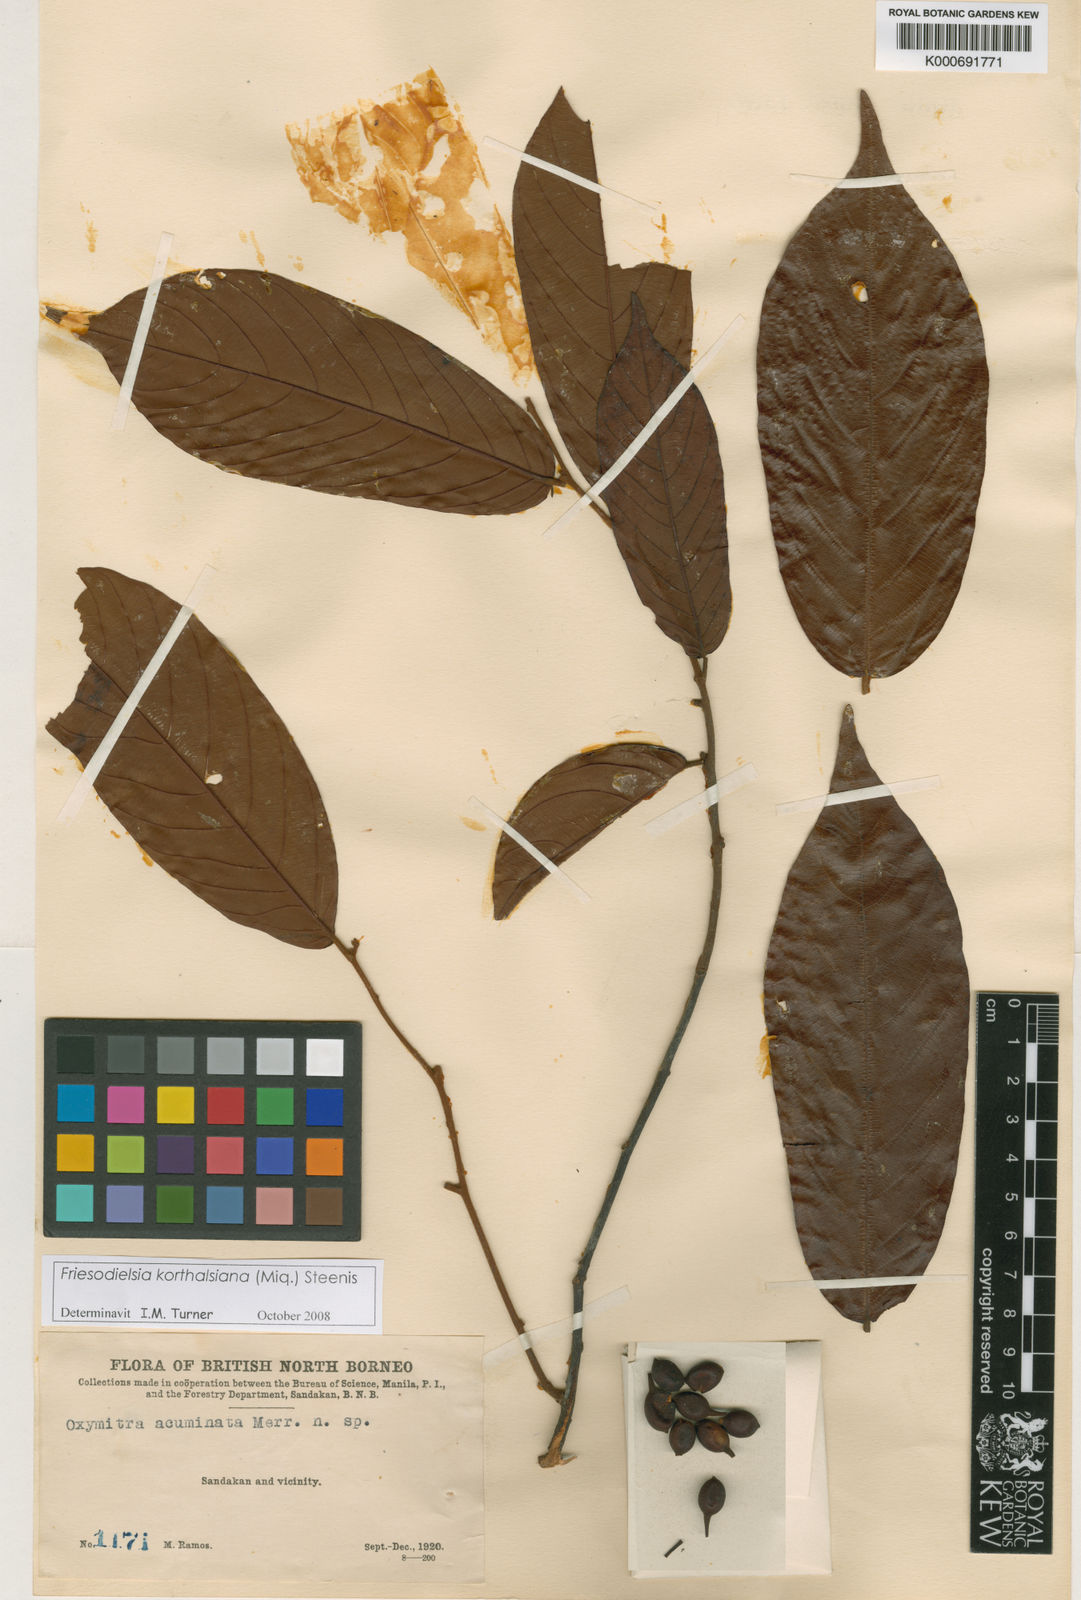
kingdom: Plantae
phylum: Tracheophyta
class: Magnoliopsida
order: Magnoliales
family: Annonaceae
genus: Friesodielsia
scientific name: Friesodielsia korthalsiana
